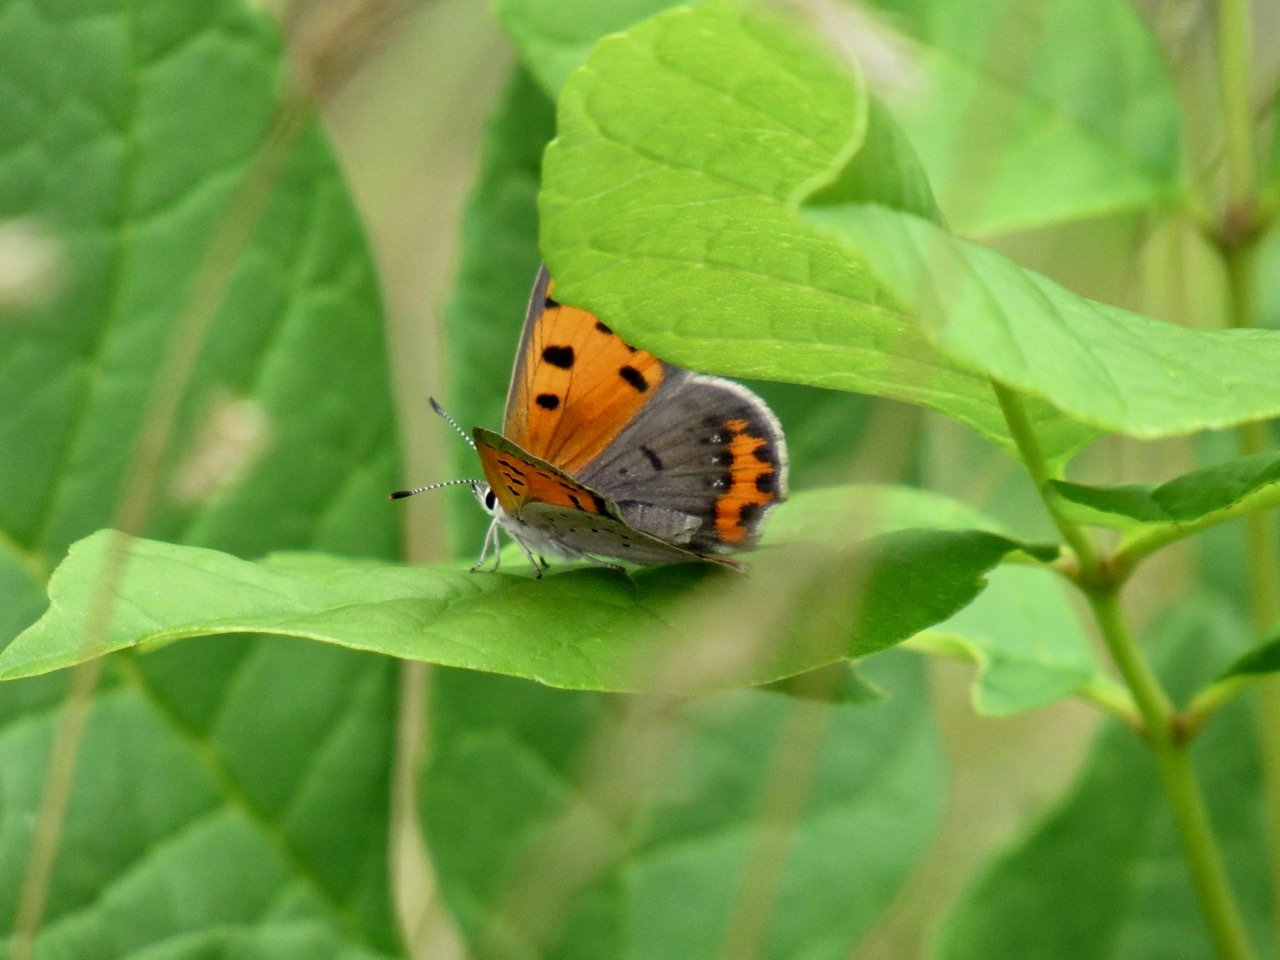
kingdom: Animalia
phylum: Arthropoda
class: Insecta
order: Lepidoptera
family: Lycaenidae
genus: Lycaena
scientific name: Lycaena phlaeas
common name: American Copper
